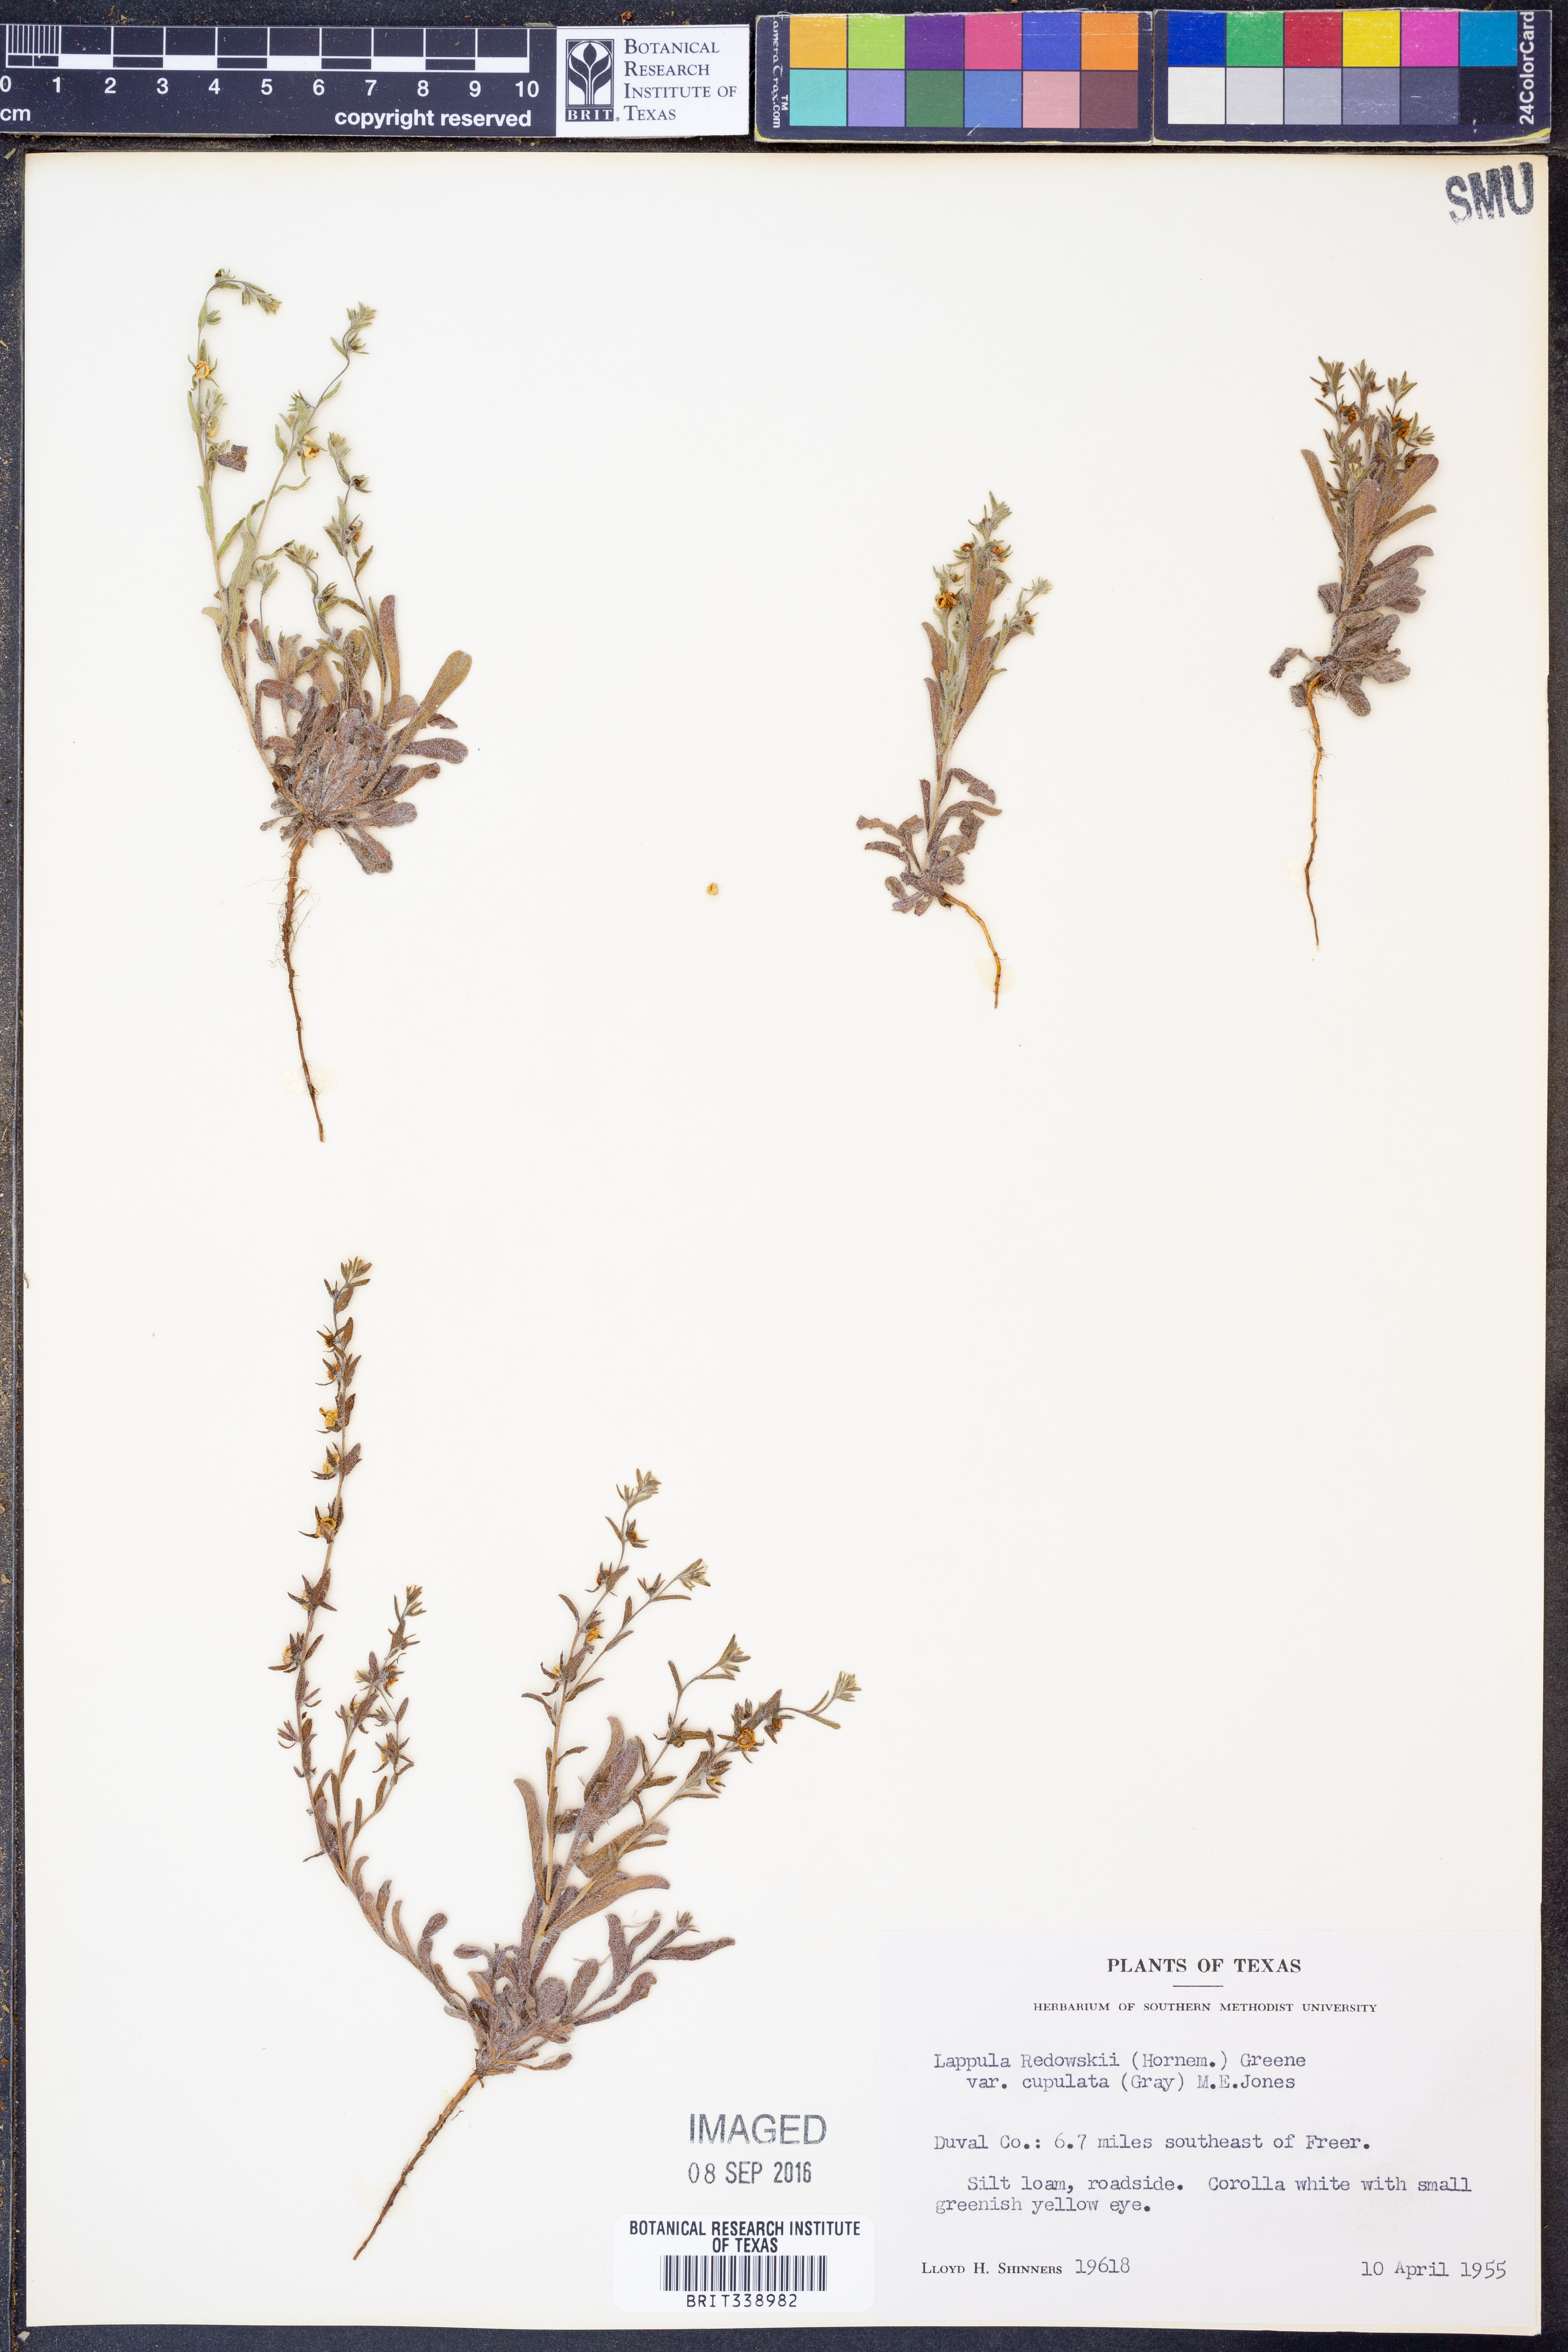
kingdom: Plantae
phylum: Tracheophyta
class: Magnoliopsida
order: Boraginales
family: Boraginaceae
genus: Lappula
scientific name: Lappula occidentalis
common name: Western stickseed
